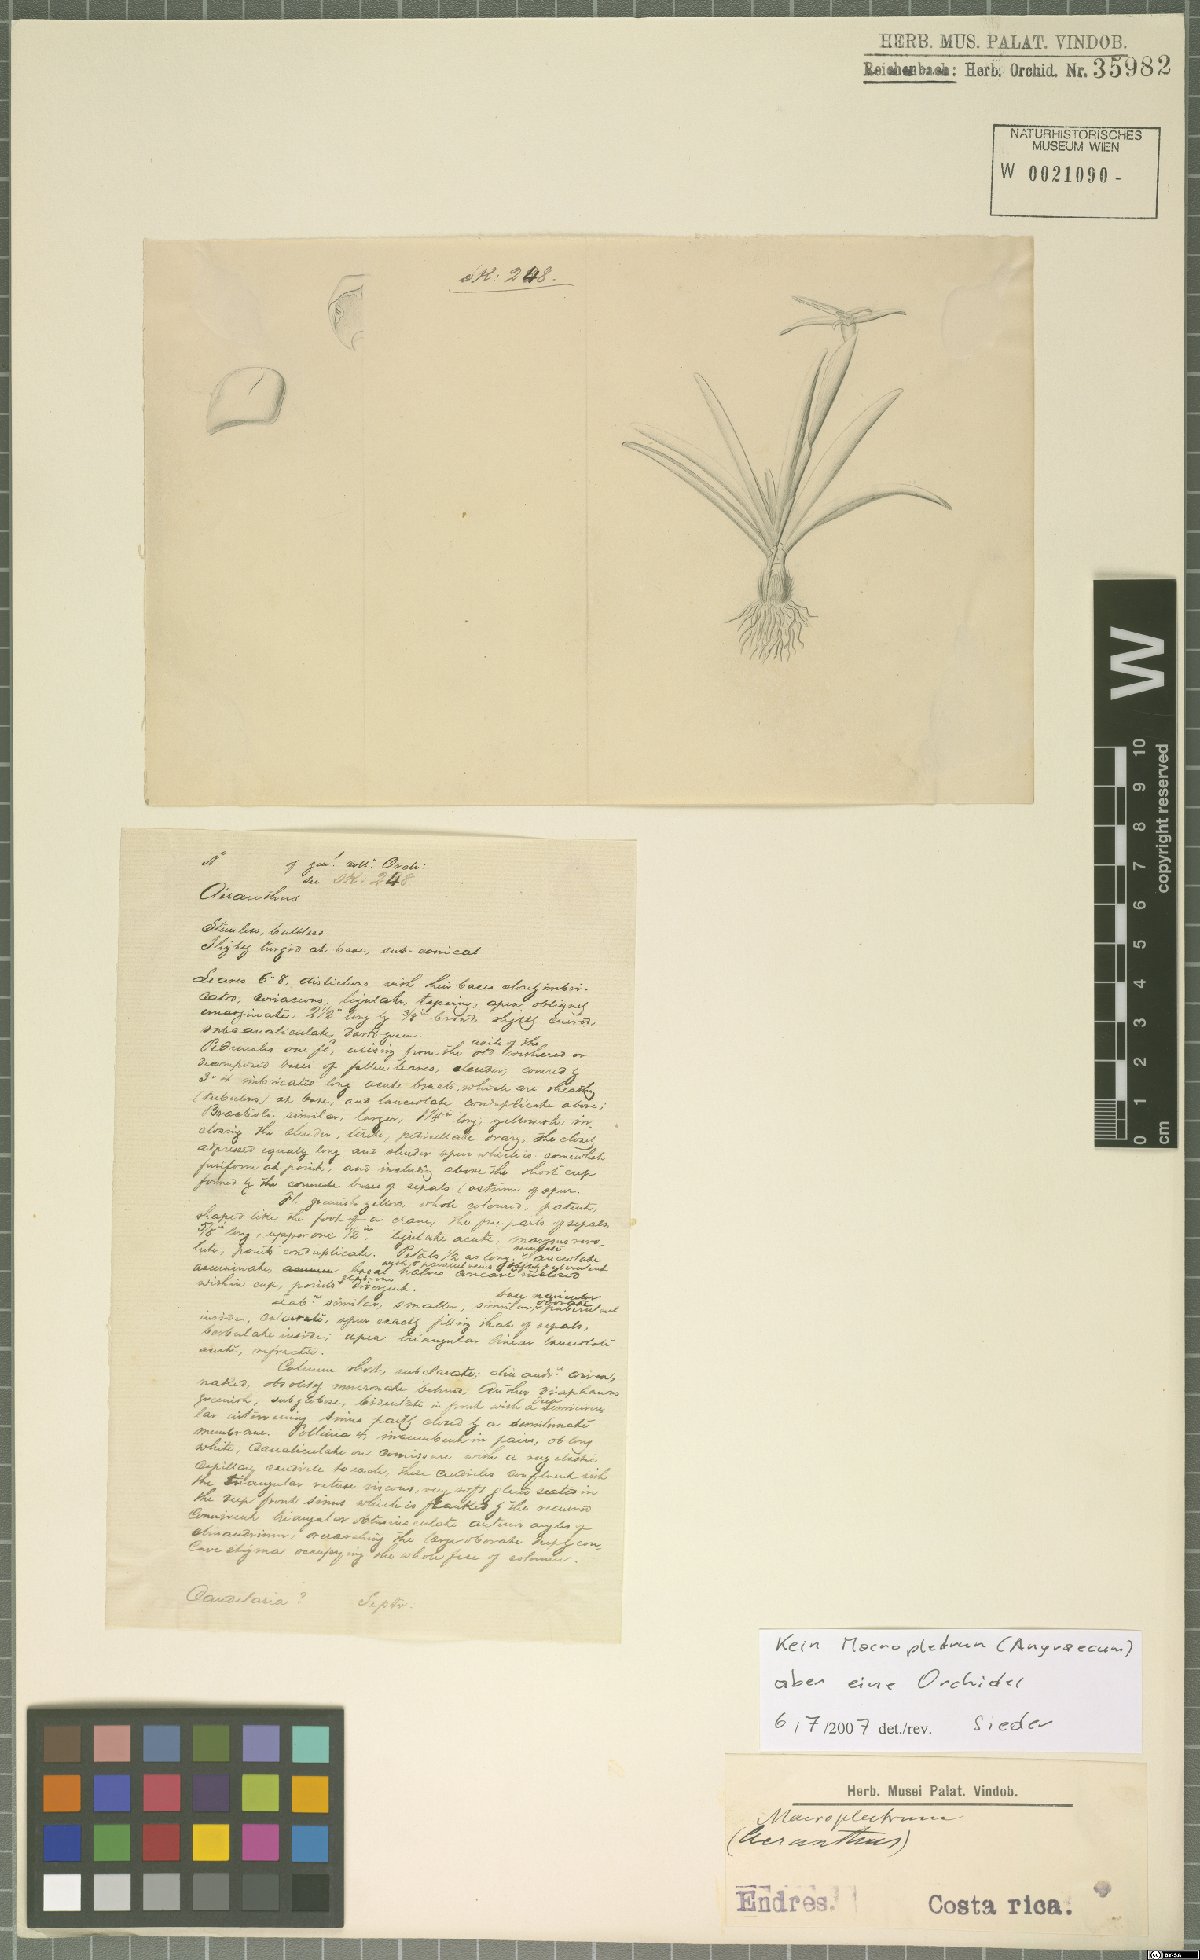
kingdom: Plantae
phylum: Tracheophyta
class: Liliopsida
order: Asparagales
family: Orchidaceae
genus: Maxillaria
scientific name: Maxillaria calcarata
